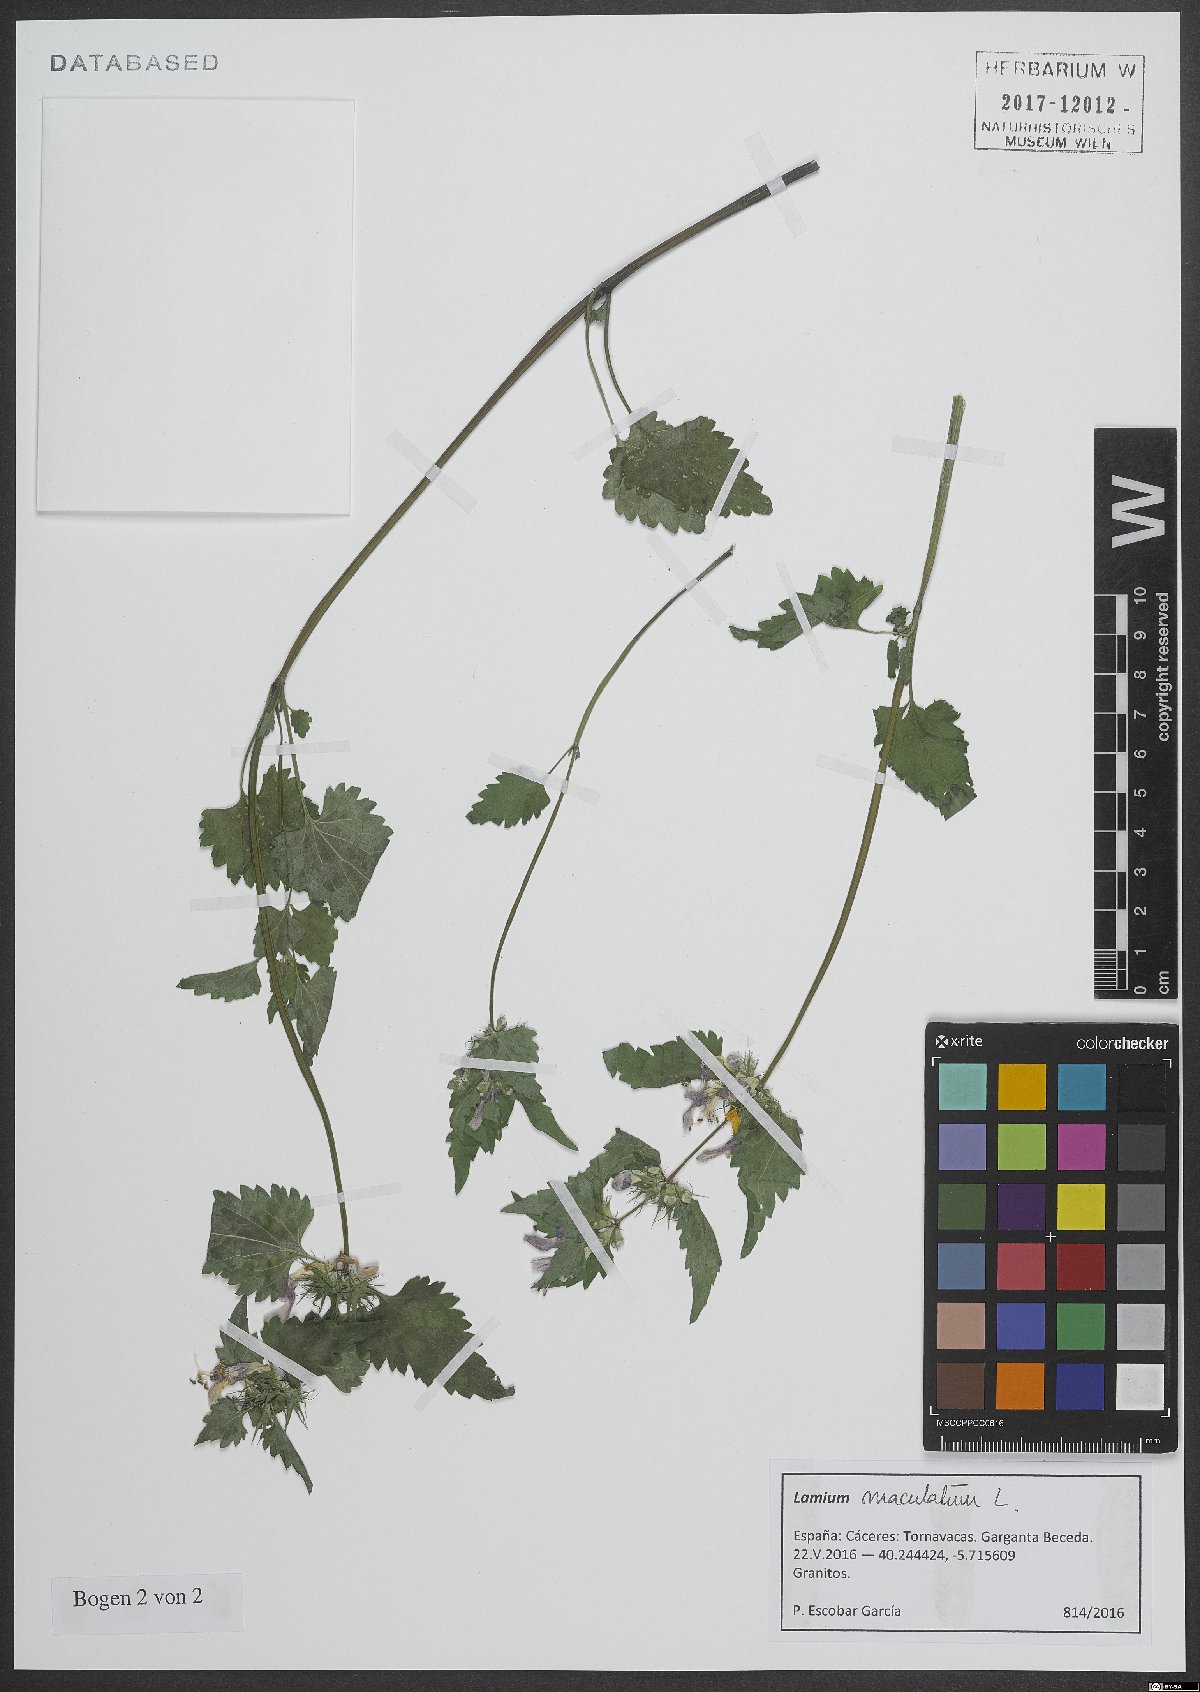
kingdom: Plantae
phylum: Tracheophyta
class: Magnoliopsida
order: Lamiales
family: Lamiaceae
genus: Lamium
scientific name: Lamium maculatum
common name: Spotted dead-nettle
